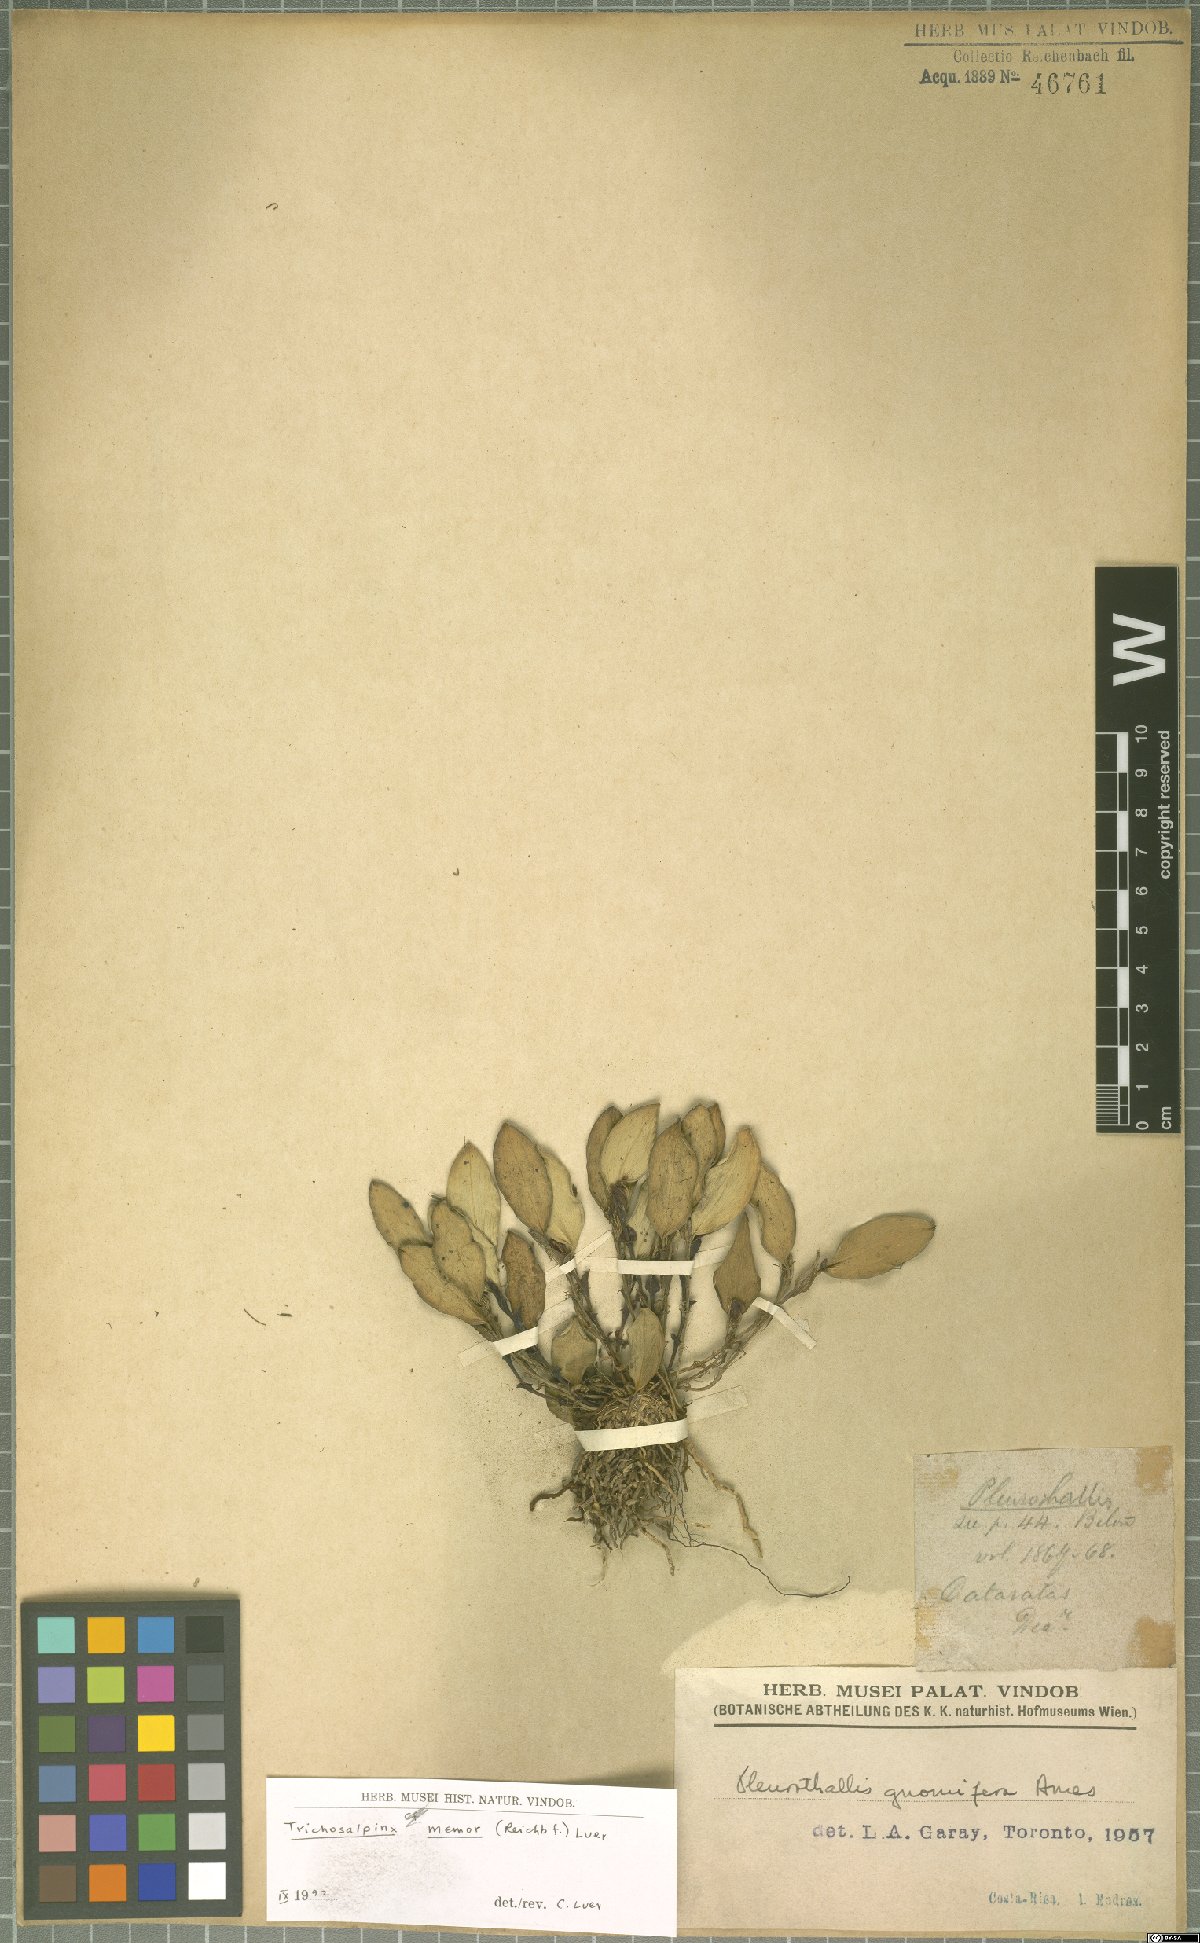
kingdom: Plantae
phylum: Tracheophyta
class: Liliopsida
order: Asparagales
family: Orchidaceae
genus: Trichosalpinx
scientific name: Trichosalpinx memor
